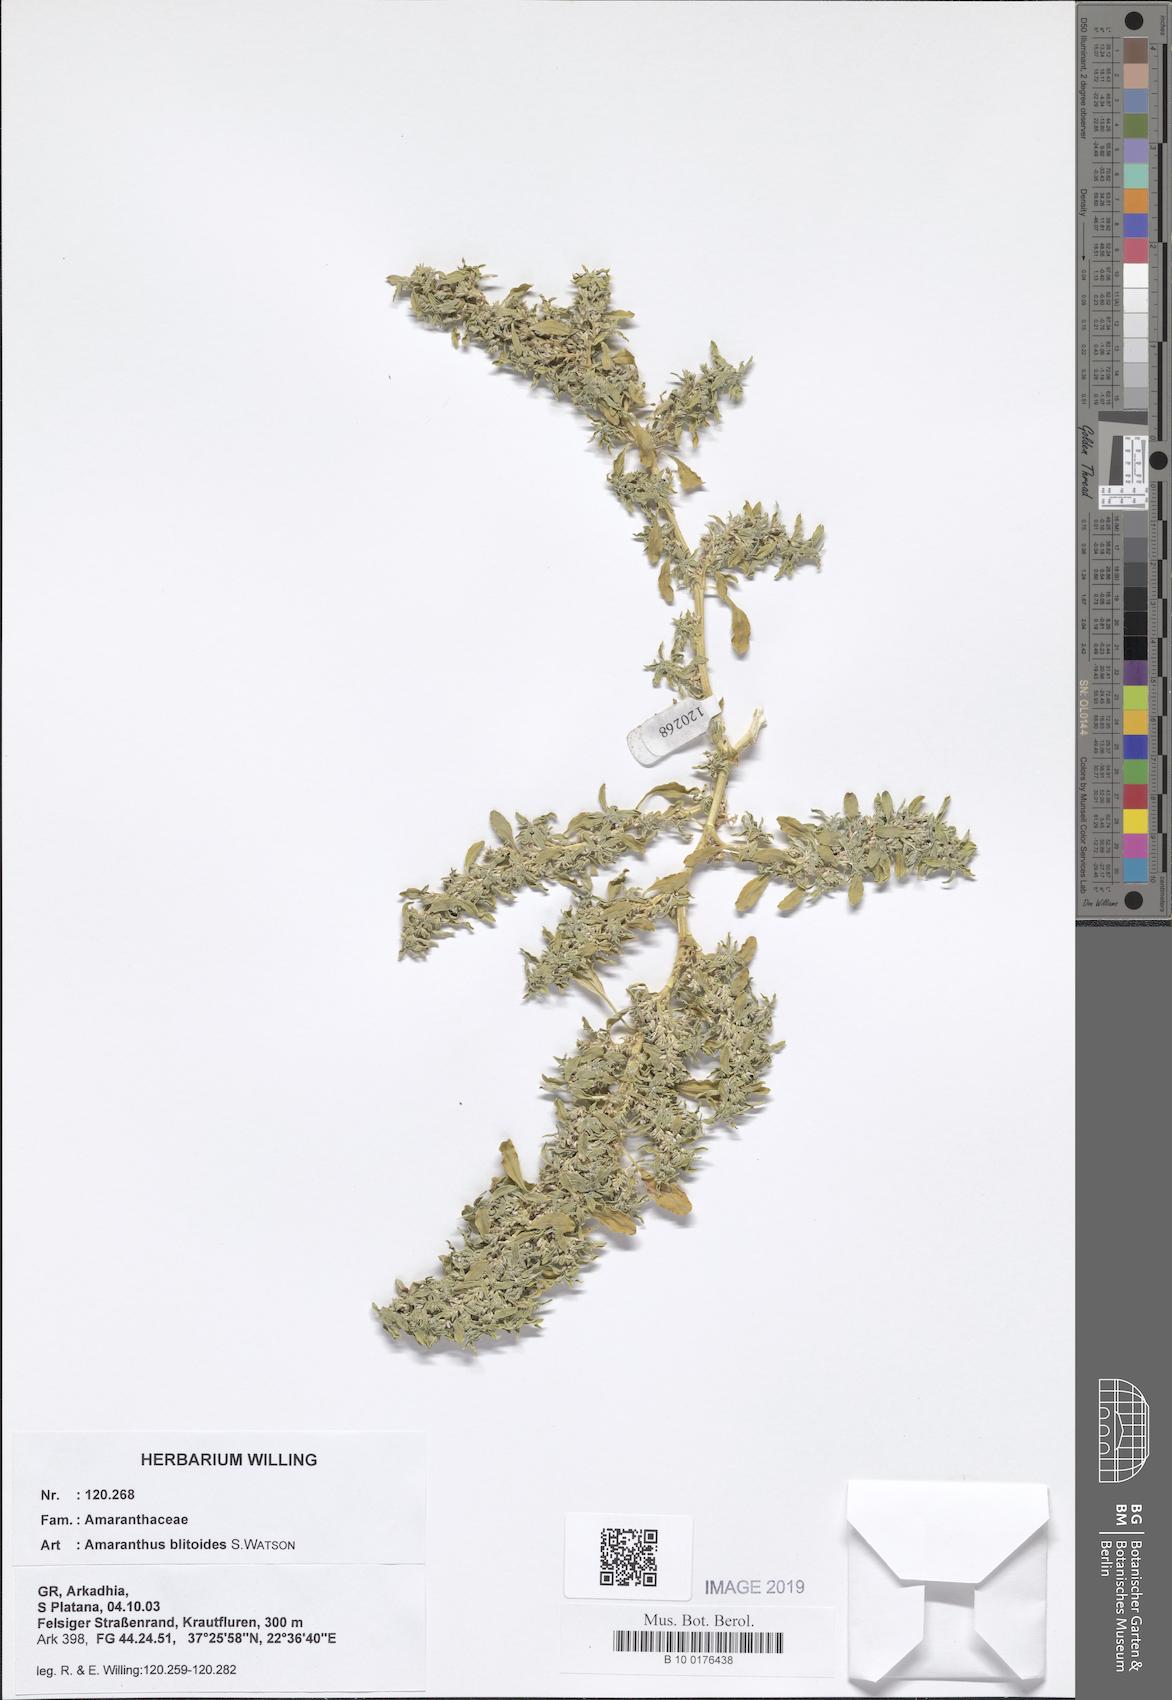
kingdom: Plantae
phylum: Tracheophyta
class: Magnoliopsida
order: Caryophyllales
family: Amaranthaceae
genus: Amaranthus
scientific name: Amaranthus blitoides
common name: Prostrate pigweed
